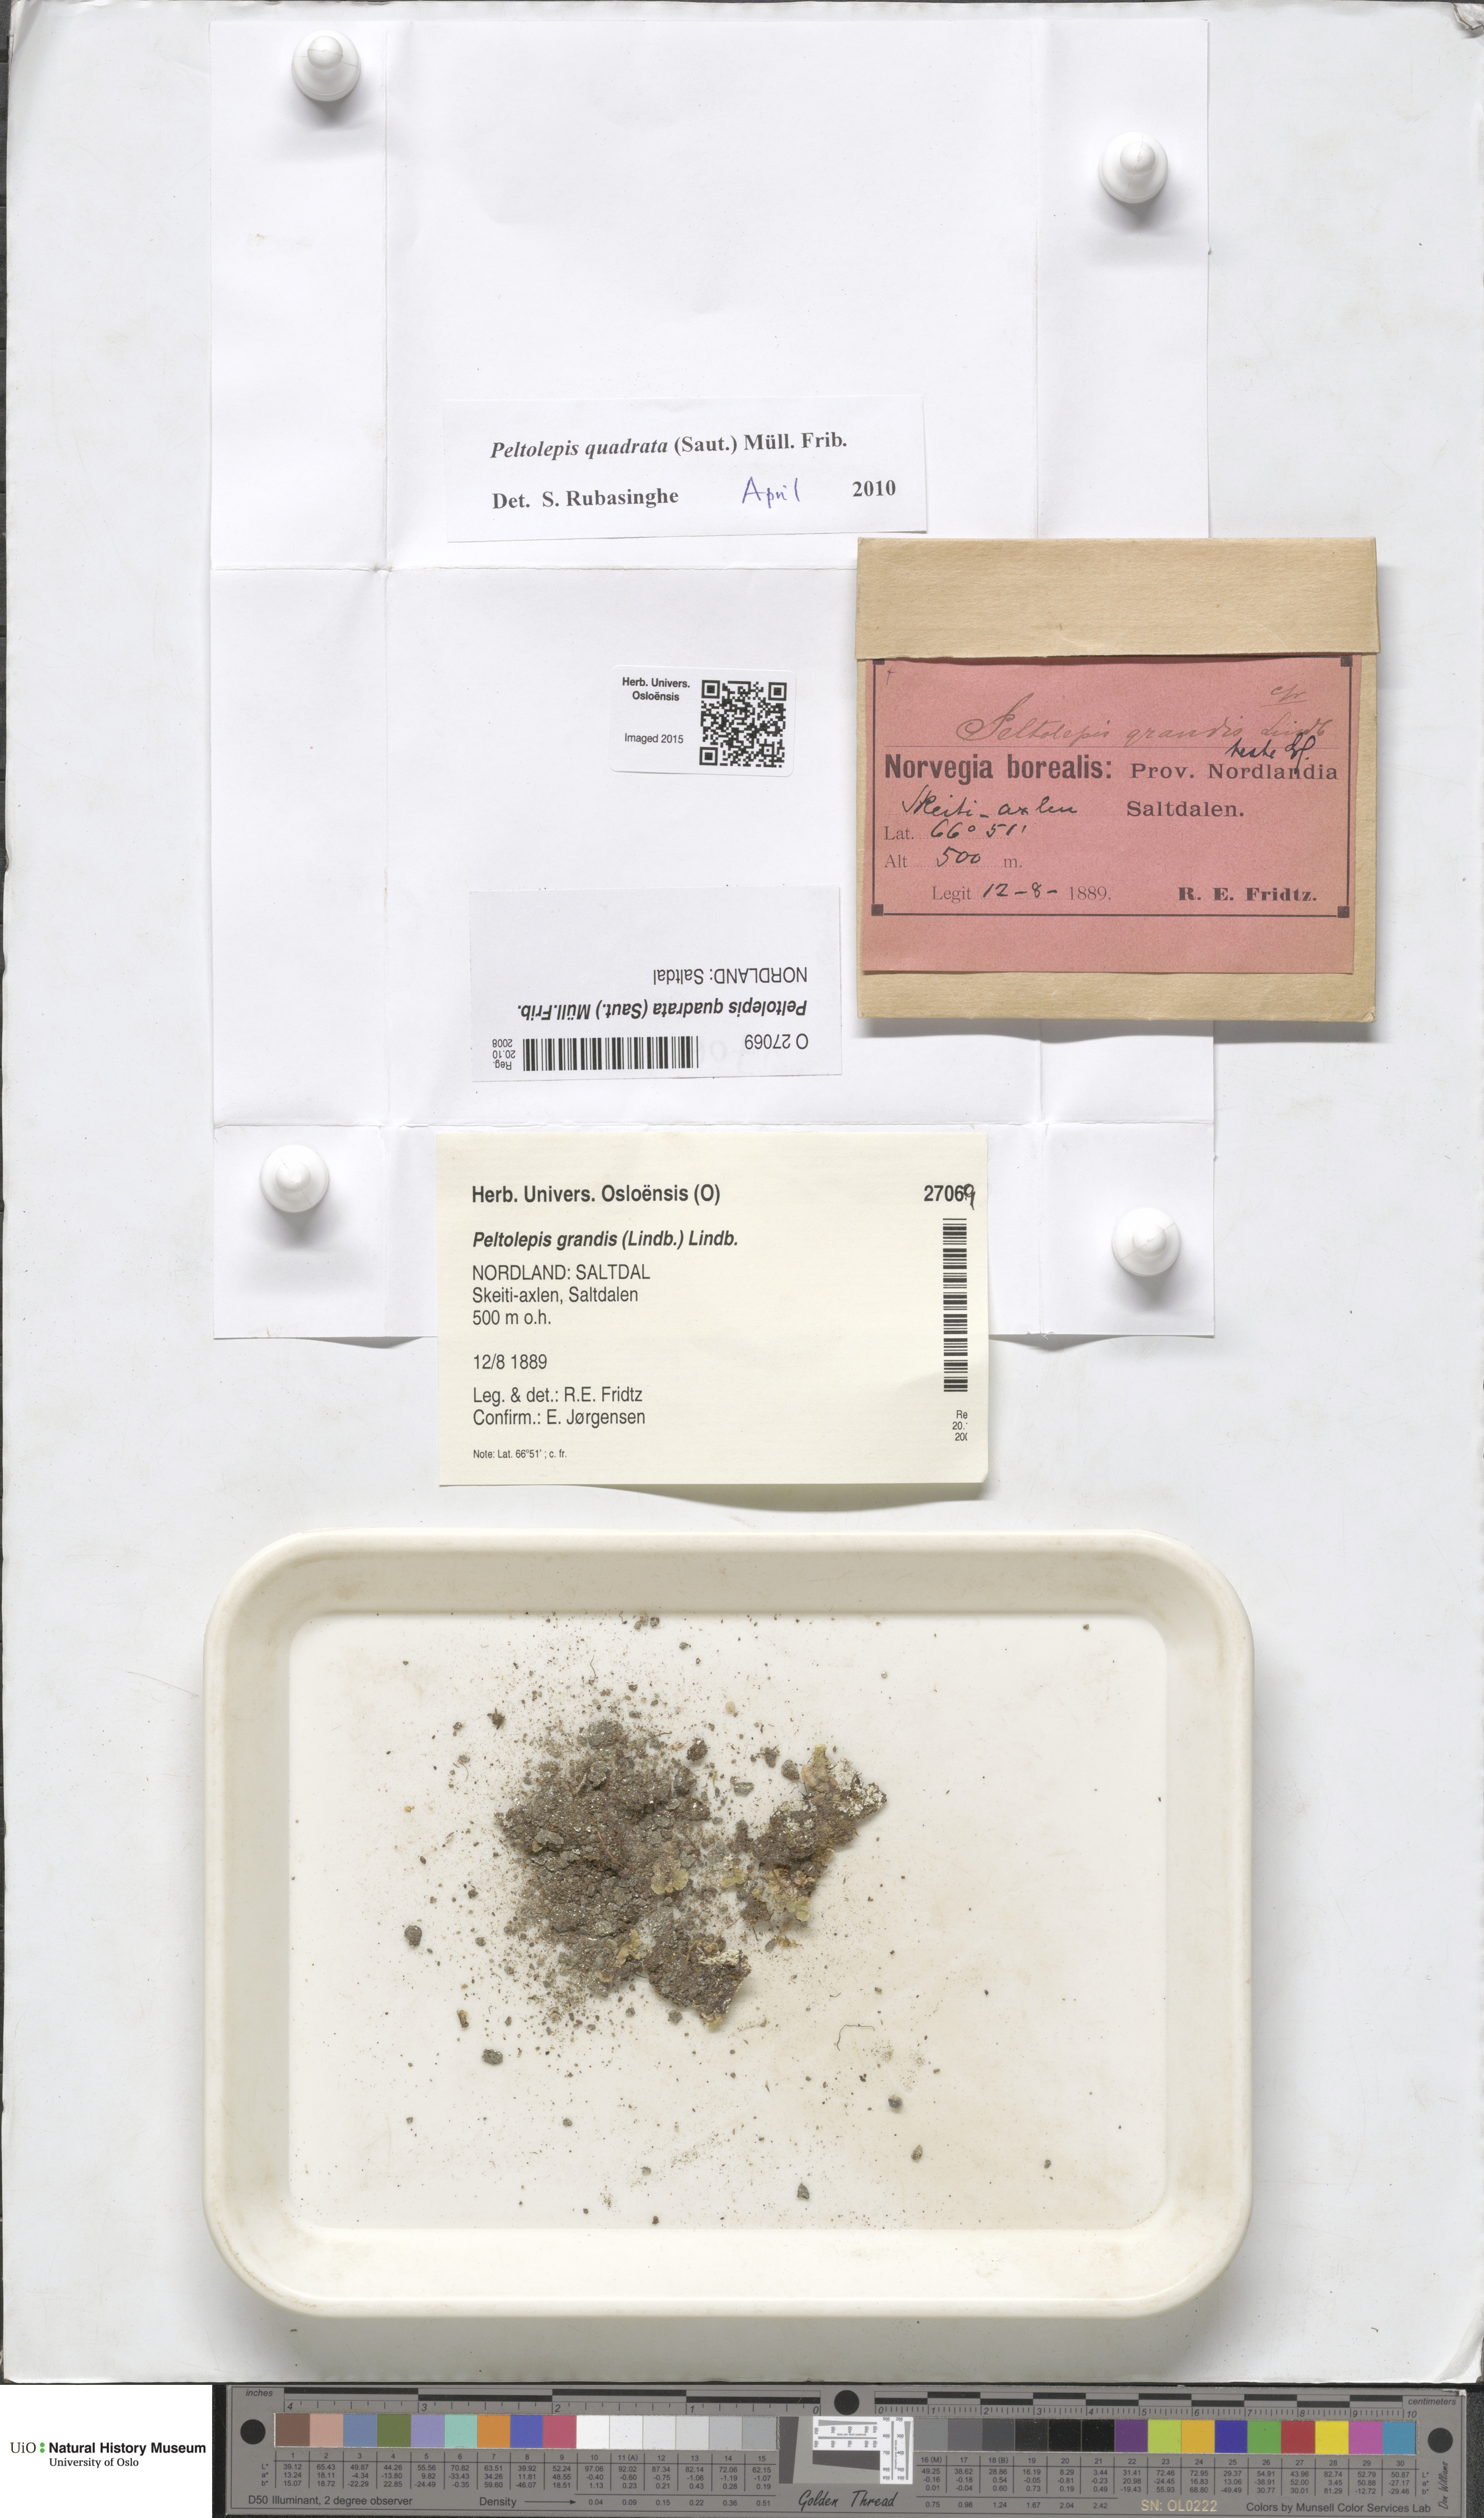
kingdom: Plantae
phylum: Marchantiophyta
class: Marchantiopsida
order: Marchantiales
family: Cleveaceae
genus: Peltolepis
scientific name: Peltolepis quadrata
